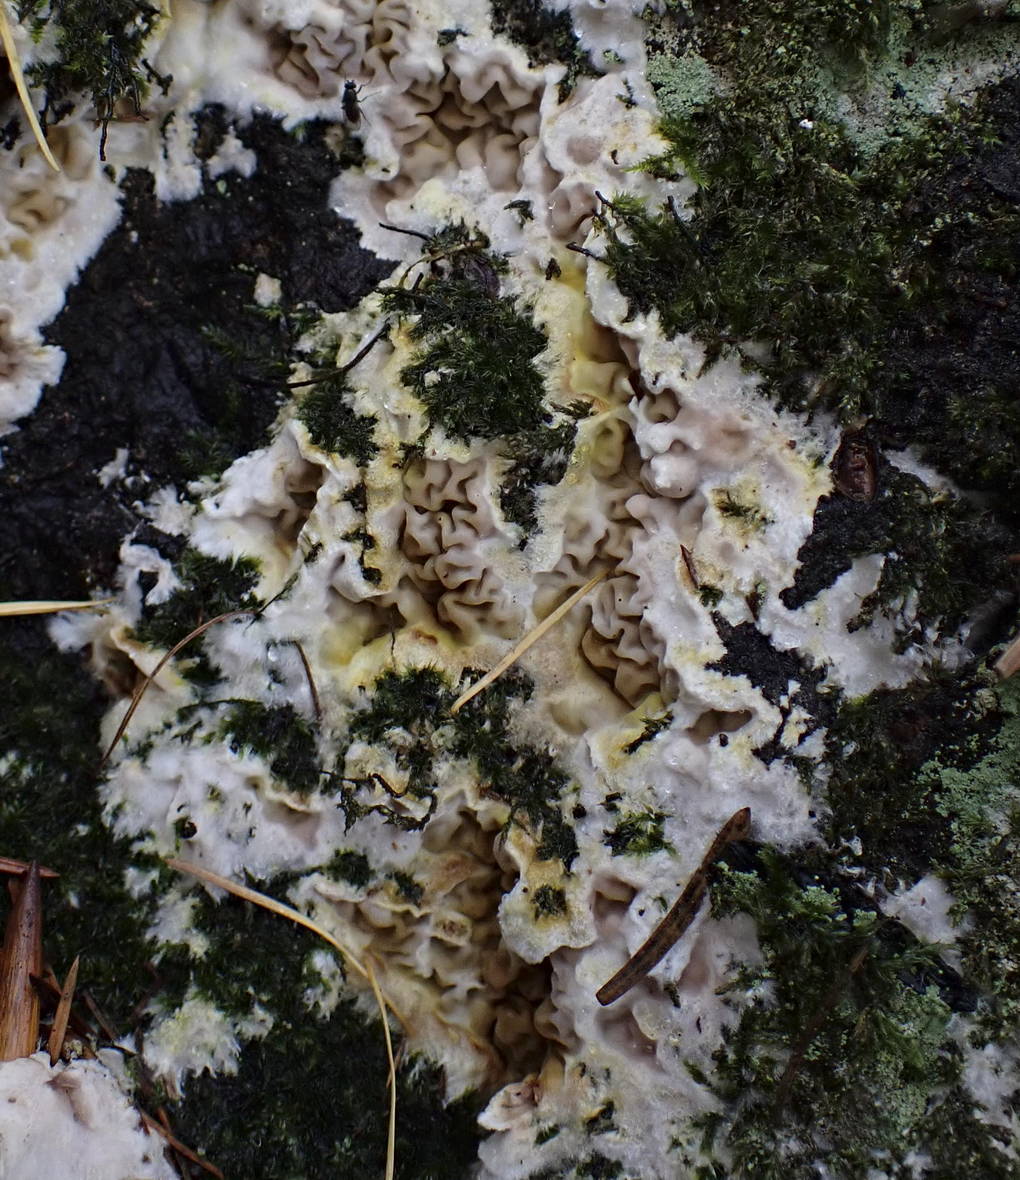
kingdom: Fungi
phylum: Basidiomycota
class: Agaricomycetes
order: Boletales
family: Serpulaceae
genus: Serpula
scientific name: Serpula himantioides
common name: tyndkødet hussvamp
